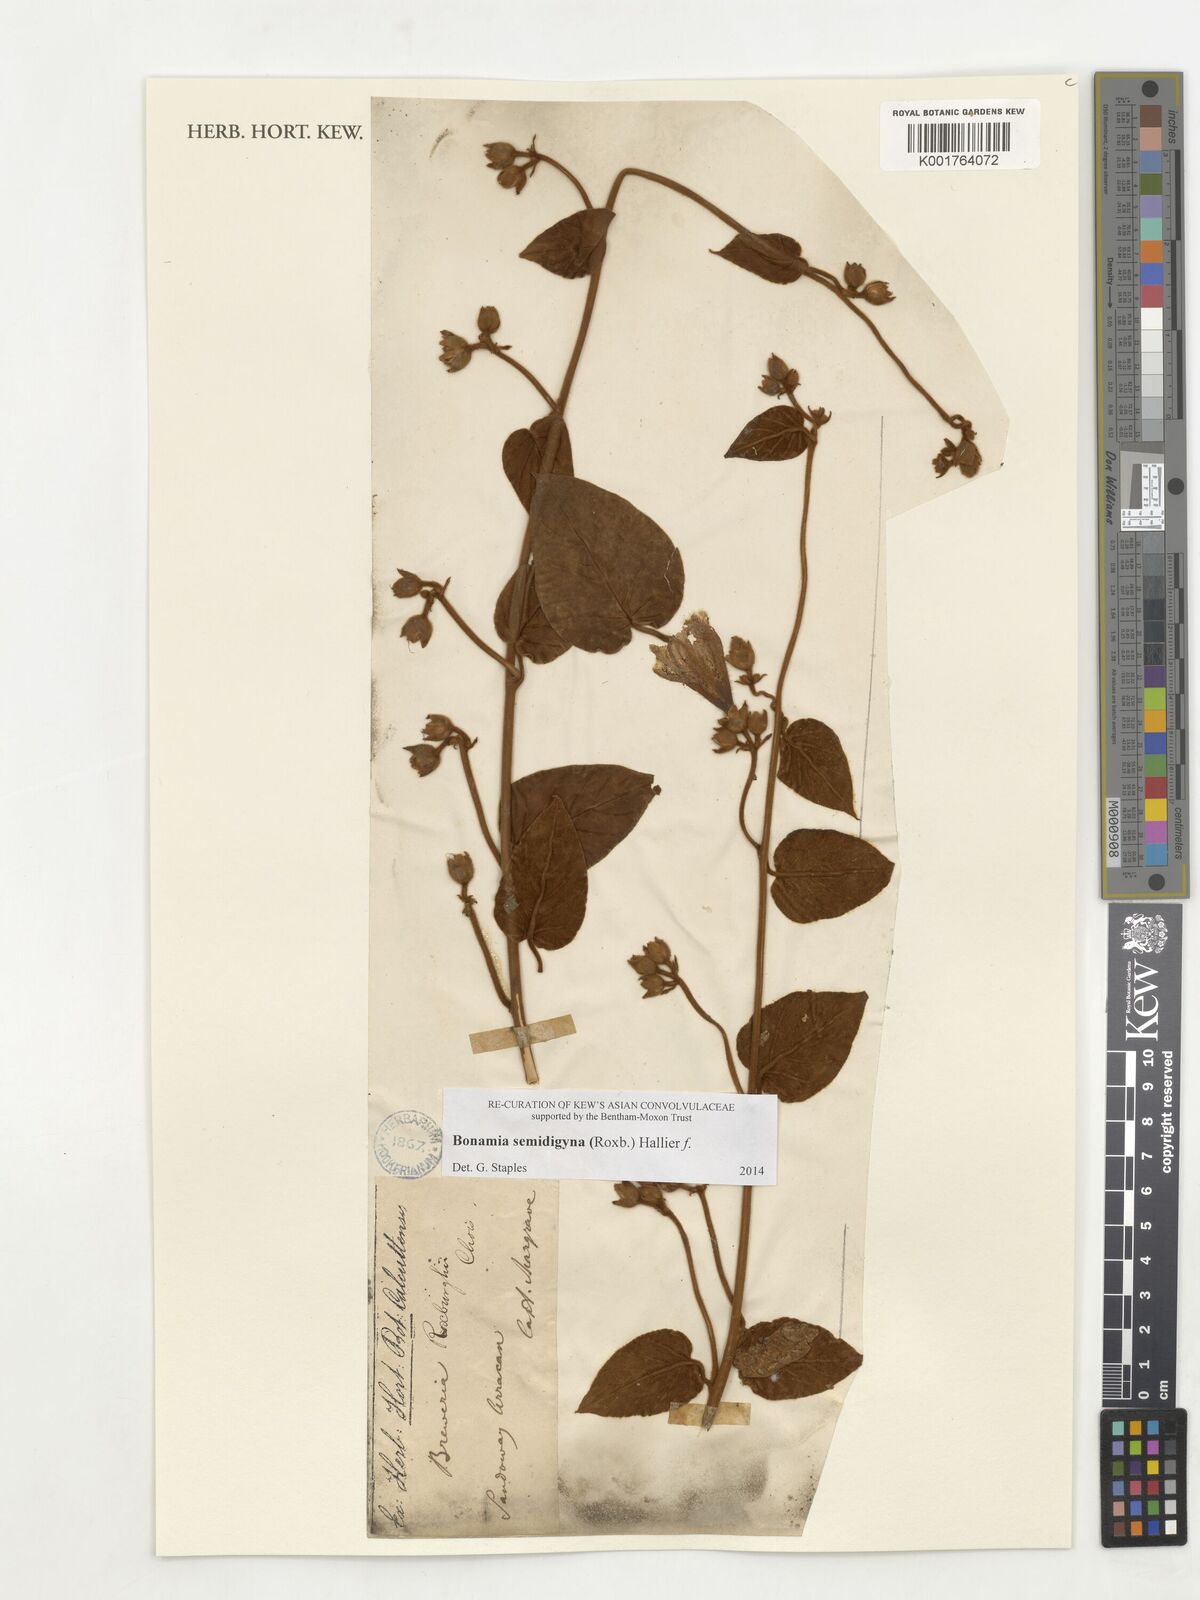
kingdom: Plantae
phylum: Tracheophyta
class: Magnoliopsida
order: Solanales
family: Convolvulaceae
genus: Bonamia
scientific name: Bonamia semidigyna
